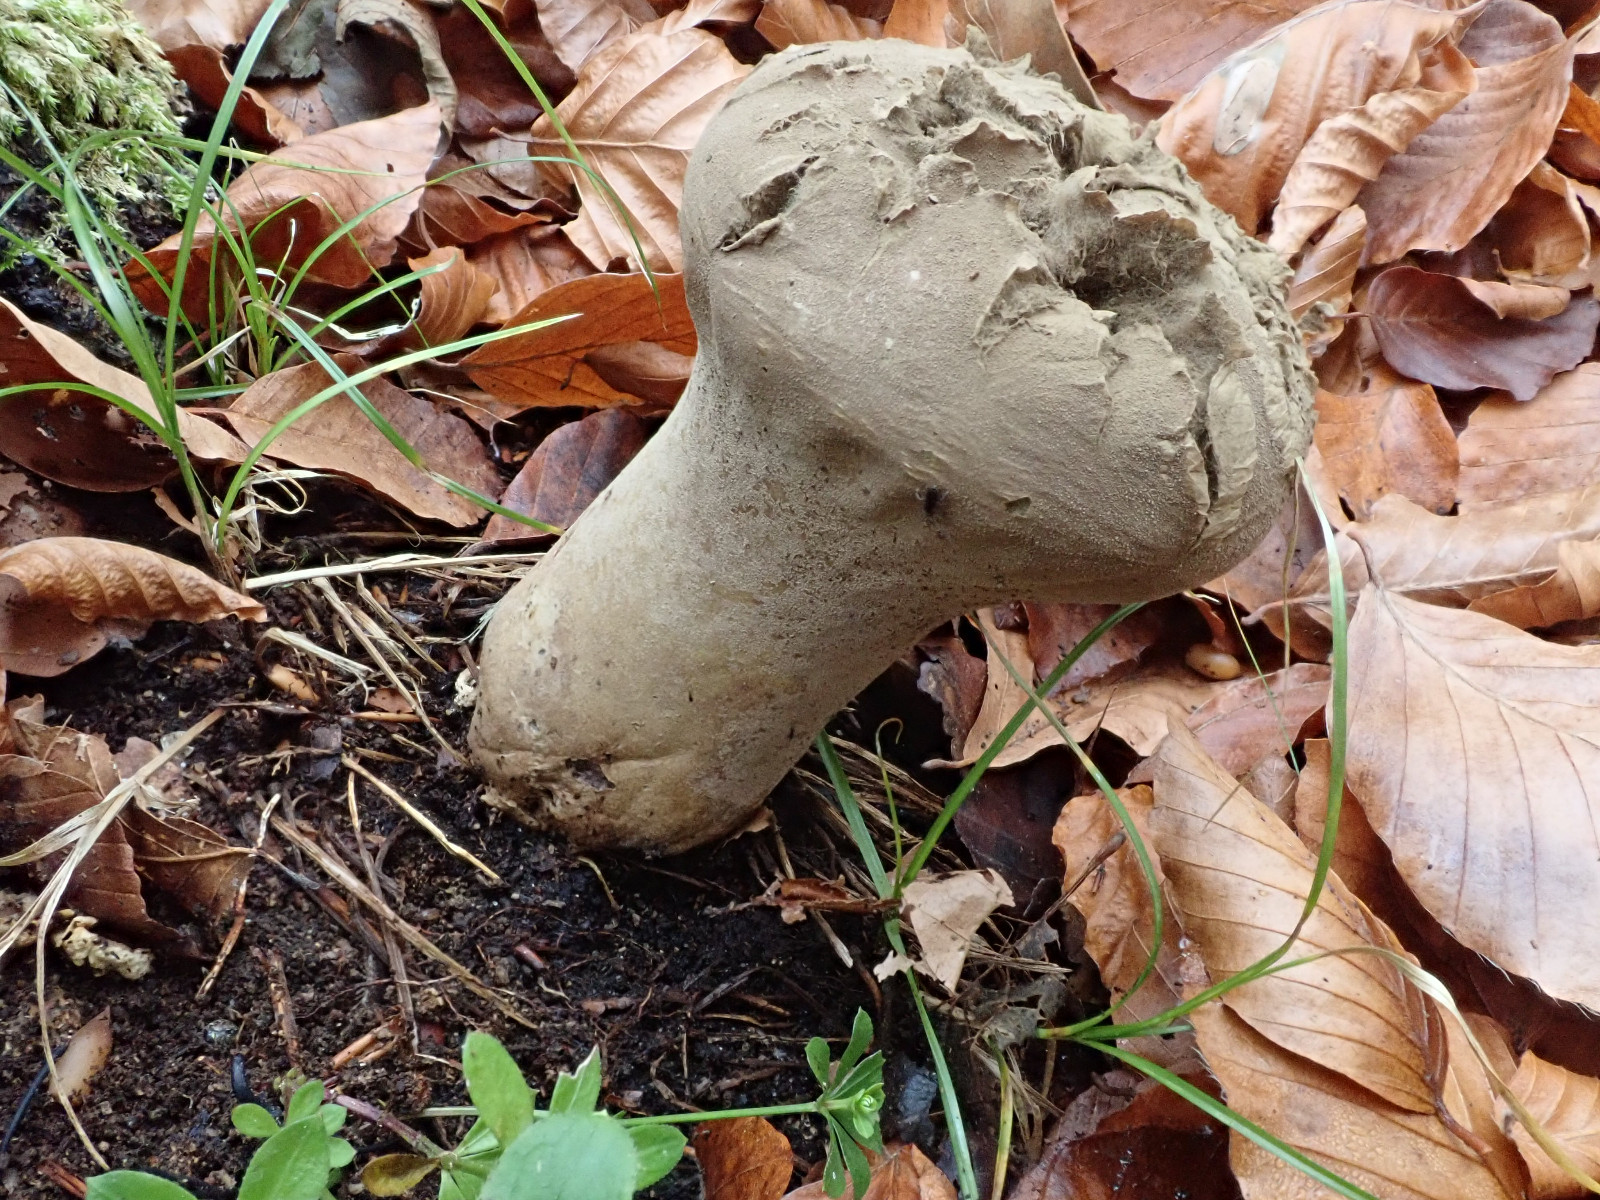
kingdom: Fungi
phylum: Basidiomycota
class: Agaricomycetes
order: Agaricales
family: Lycoperdaceae
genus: Lycoperdon
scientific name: Lycoperdon excipuliforme
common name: højstokket støvbold
